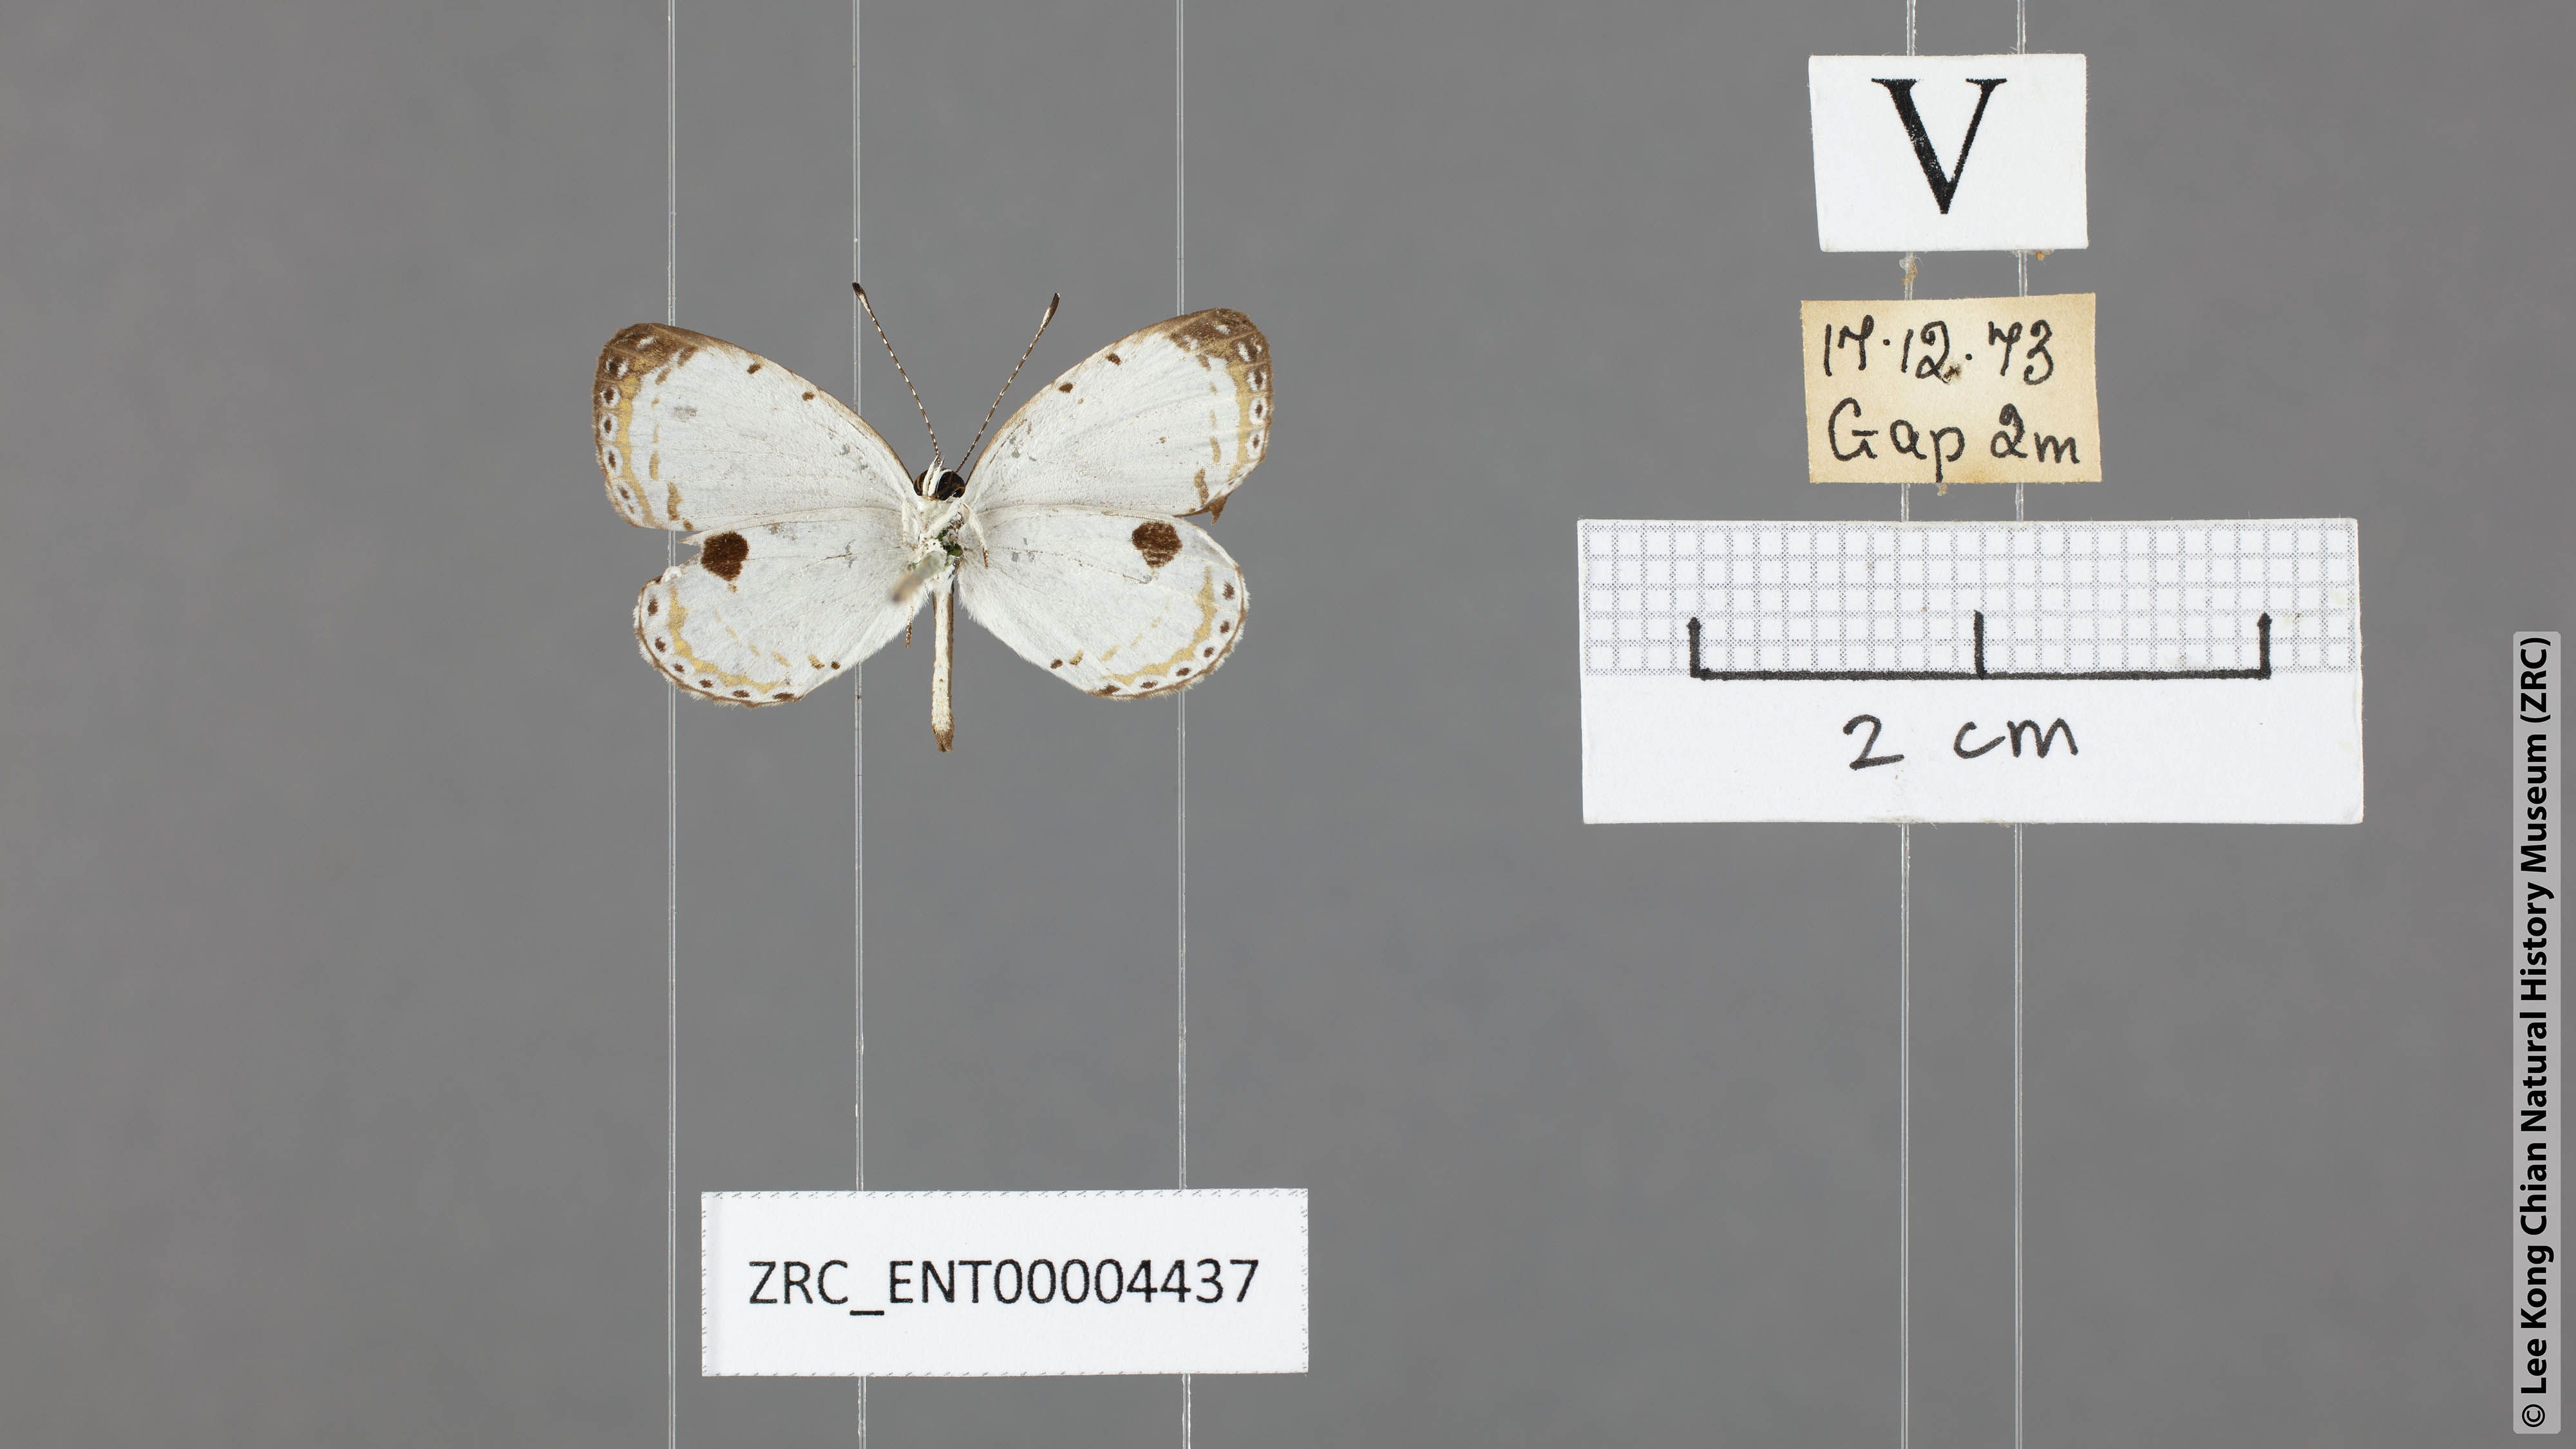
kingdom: Animalia
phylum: Arthropoda
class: Insecta
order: Lepidoptera
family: Lycaenidae
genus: Pithecops
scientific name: Pithecops corvus
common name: Forest quaker
